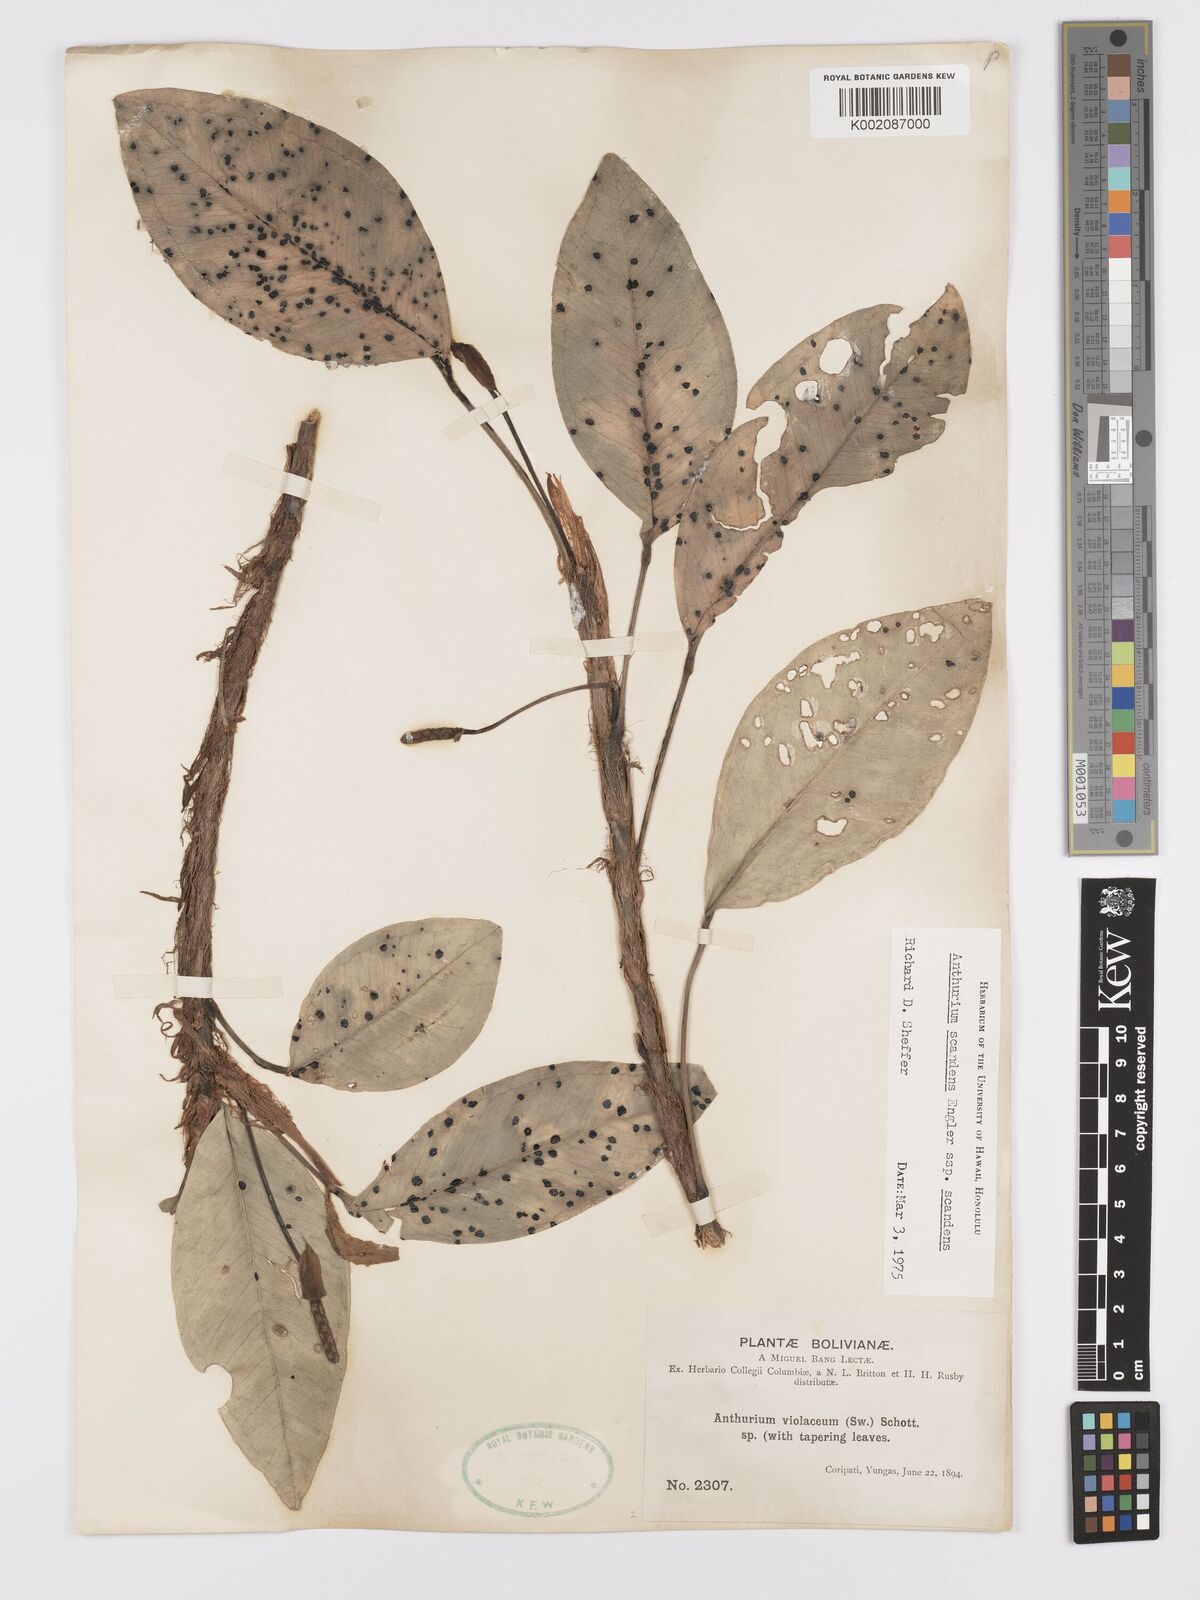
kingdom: Plantae
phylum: Tracheophyta
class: Liliopsida
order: Alismatales
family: Araceae
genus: Anthurium
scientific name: Anthurium scandens
